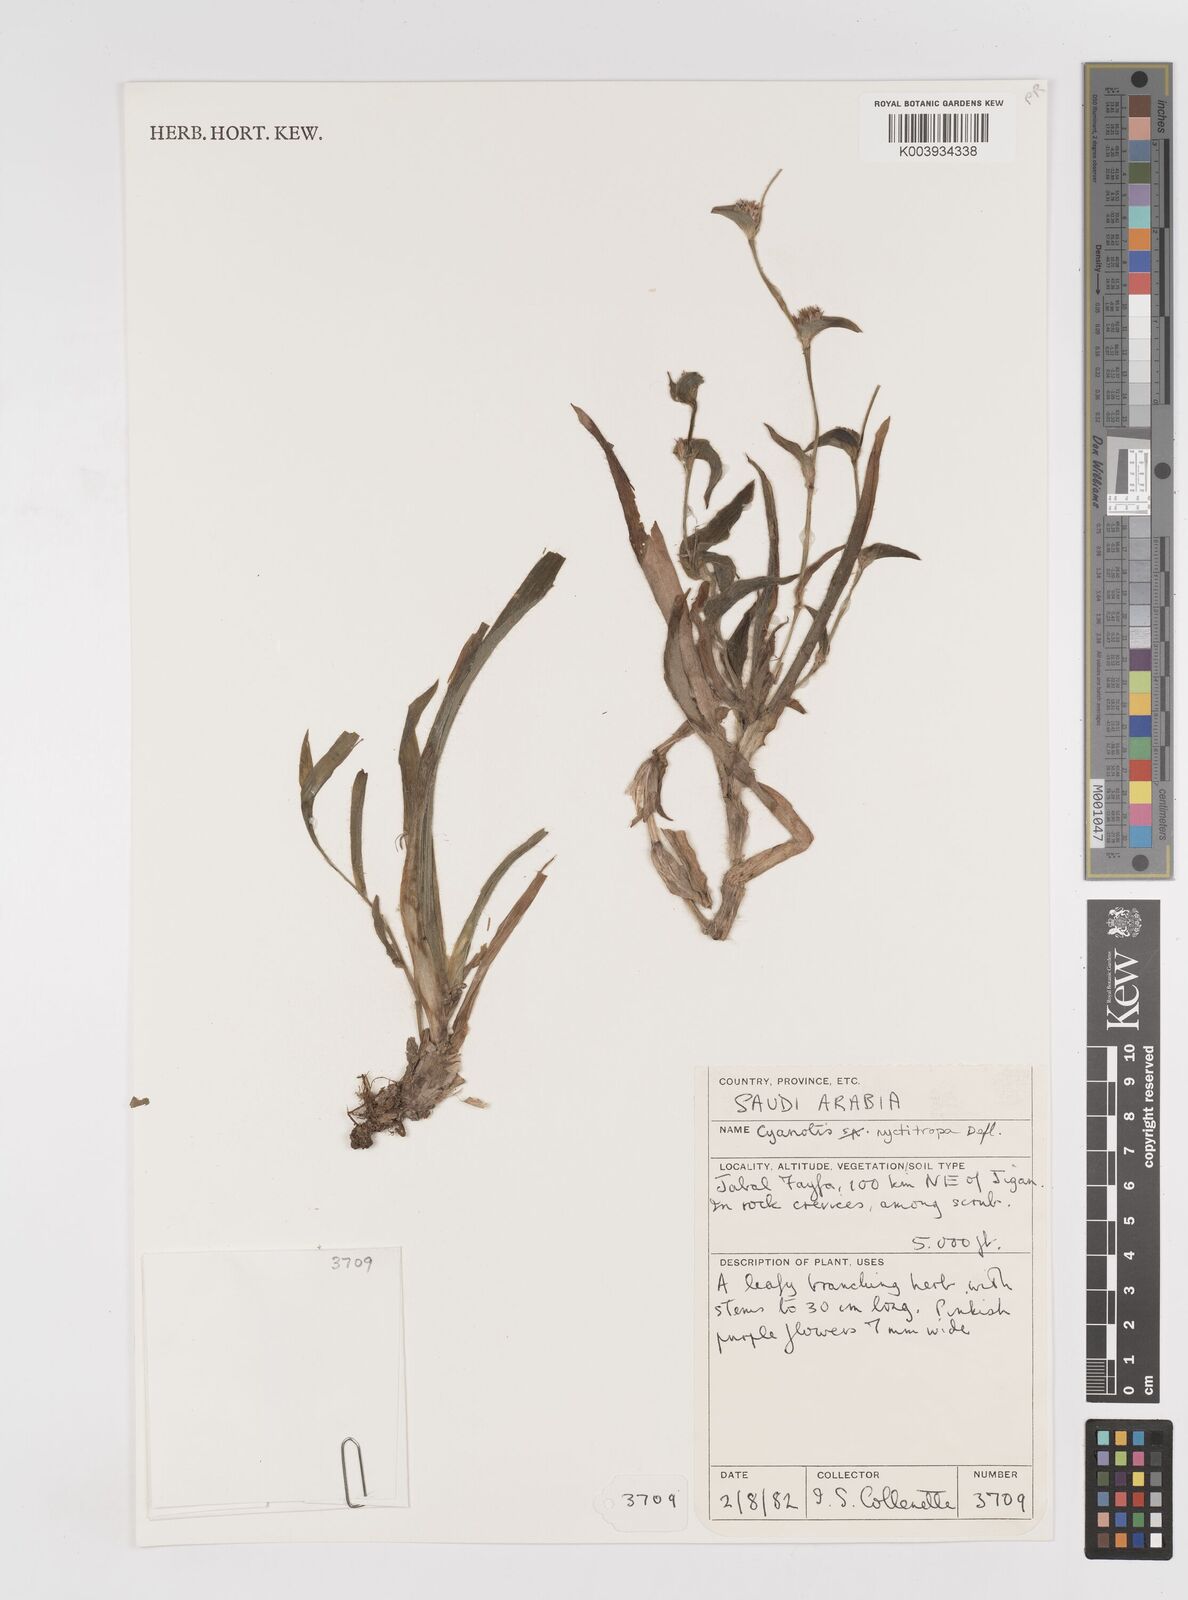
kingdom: Plantae
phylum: Tracheophyta
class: Liliopsida
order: Commelinales
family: Commelinaceae
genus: Cyanotis
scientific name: Cyanotis nyctitropa
